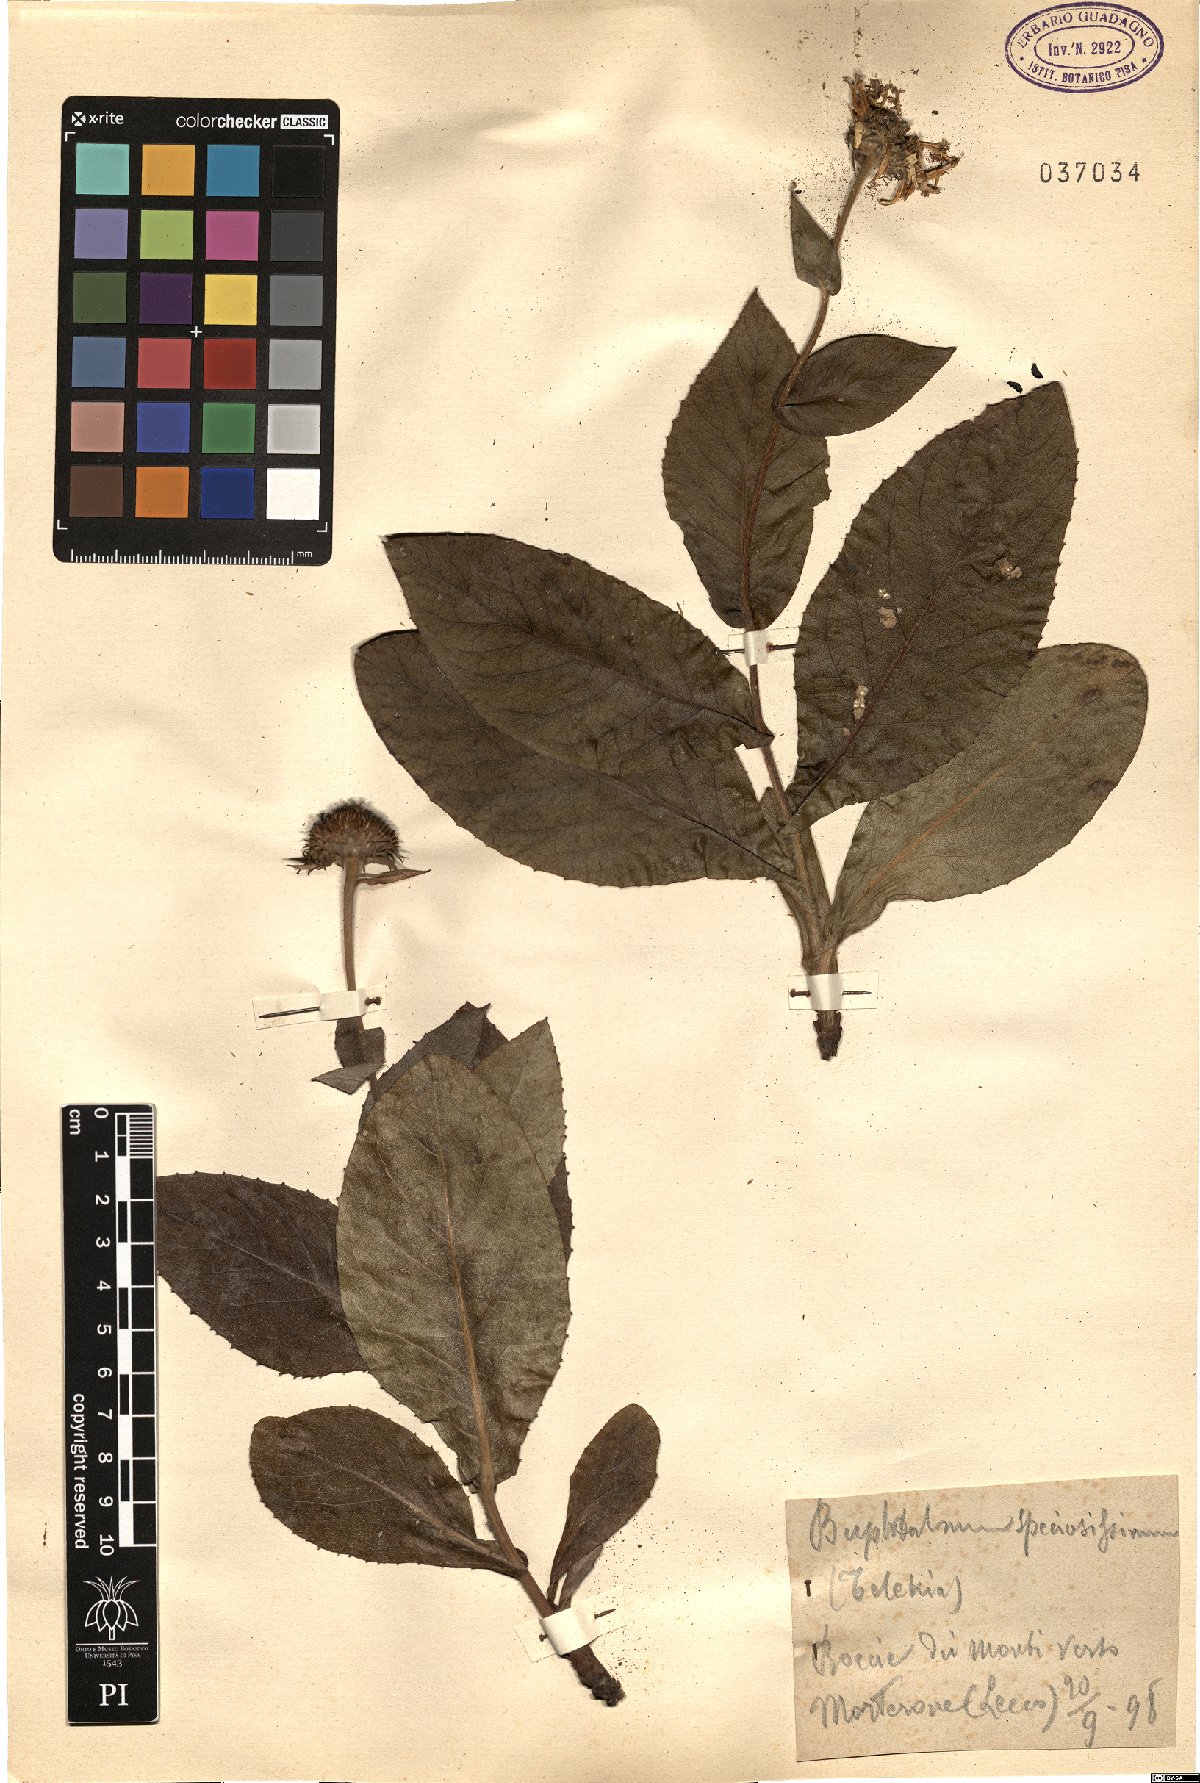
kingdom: Plantae
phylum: Tracheophyta
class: Magnoliopsida
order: Asterales
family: Asteraceae
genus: Buphthalmum
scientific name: Buphthalmum speciosissimum
